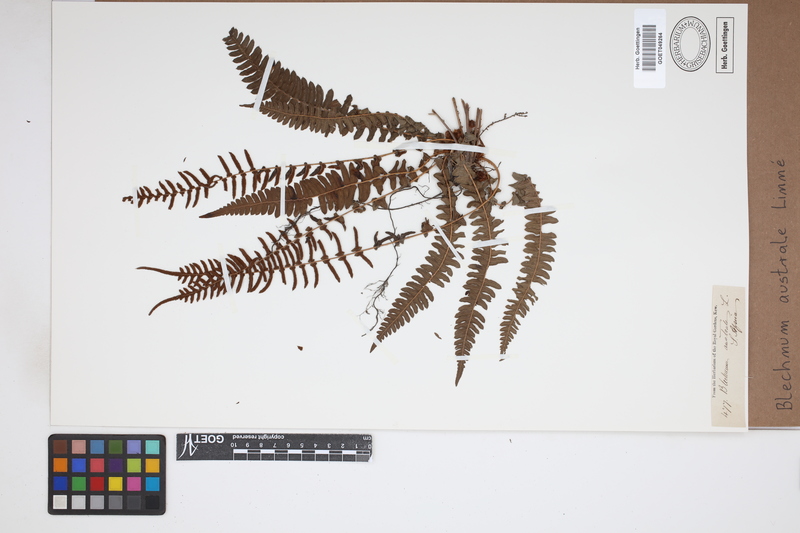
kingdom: Plantae
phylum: Tracheophyta
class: Polypodiopsida
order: Polypodiales
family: Blechnaceae
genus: Blechnum
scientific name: Blechnum australe
